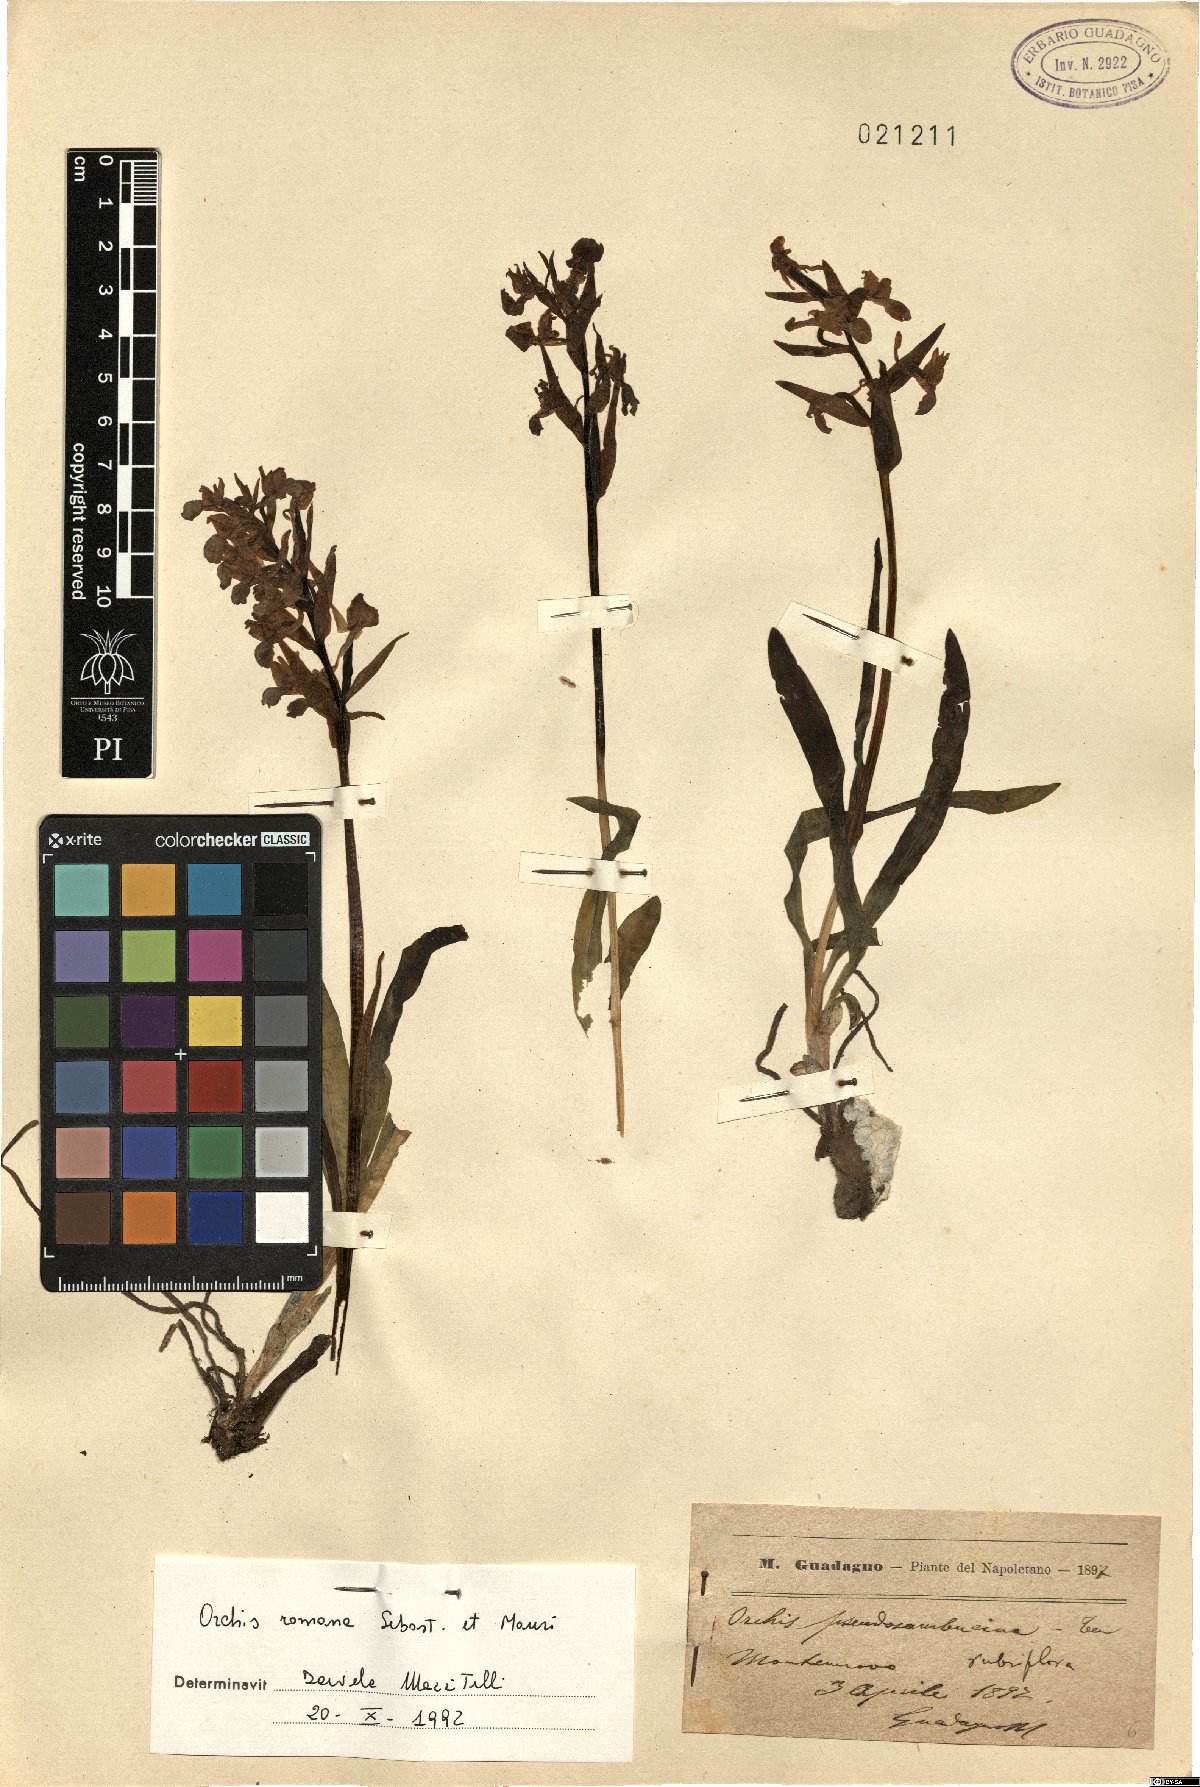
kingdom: Plantae
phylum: Tracheophyta
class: Liliopsida
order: Asparagales
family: Orchidaceae
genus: Dactylorhiza
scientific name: Dactylorhiza romana
